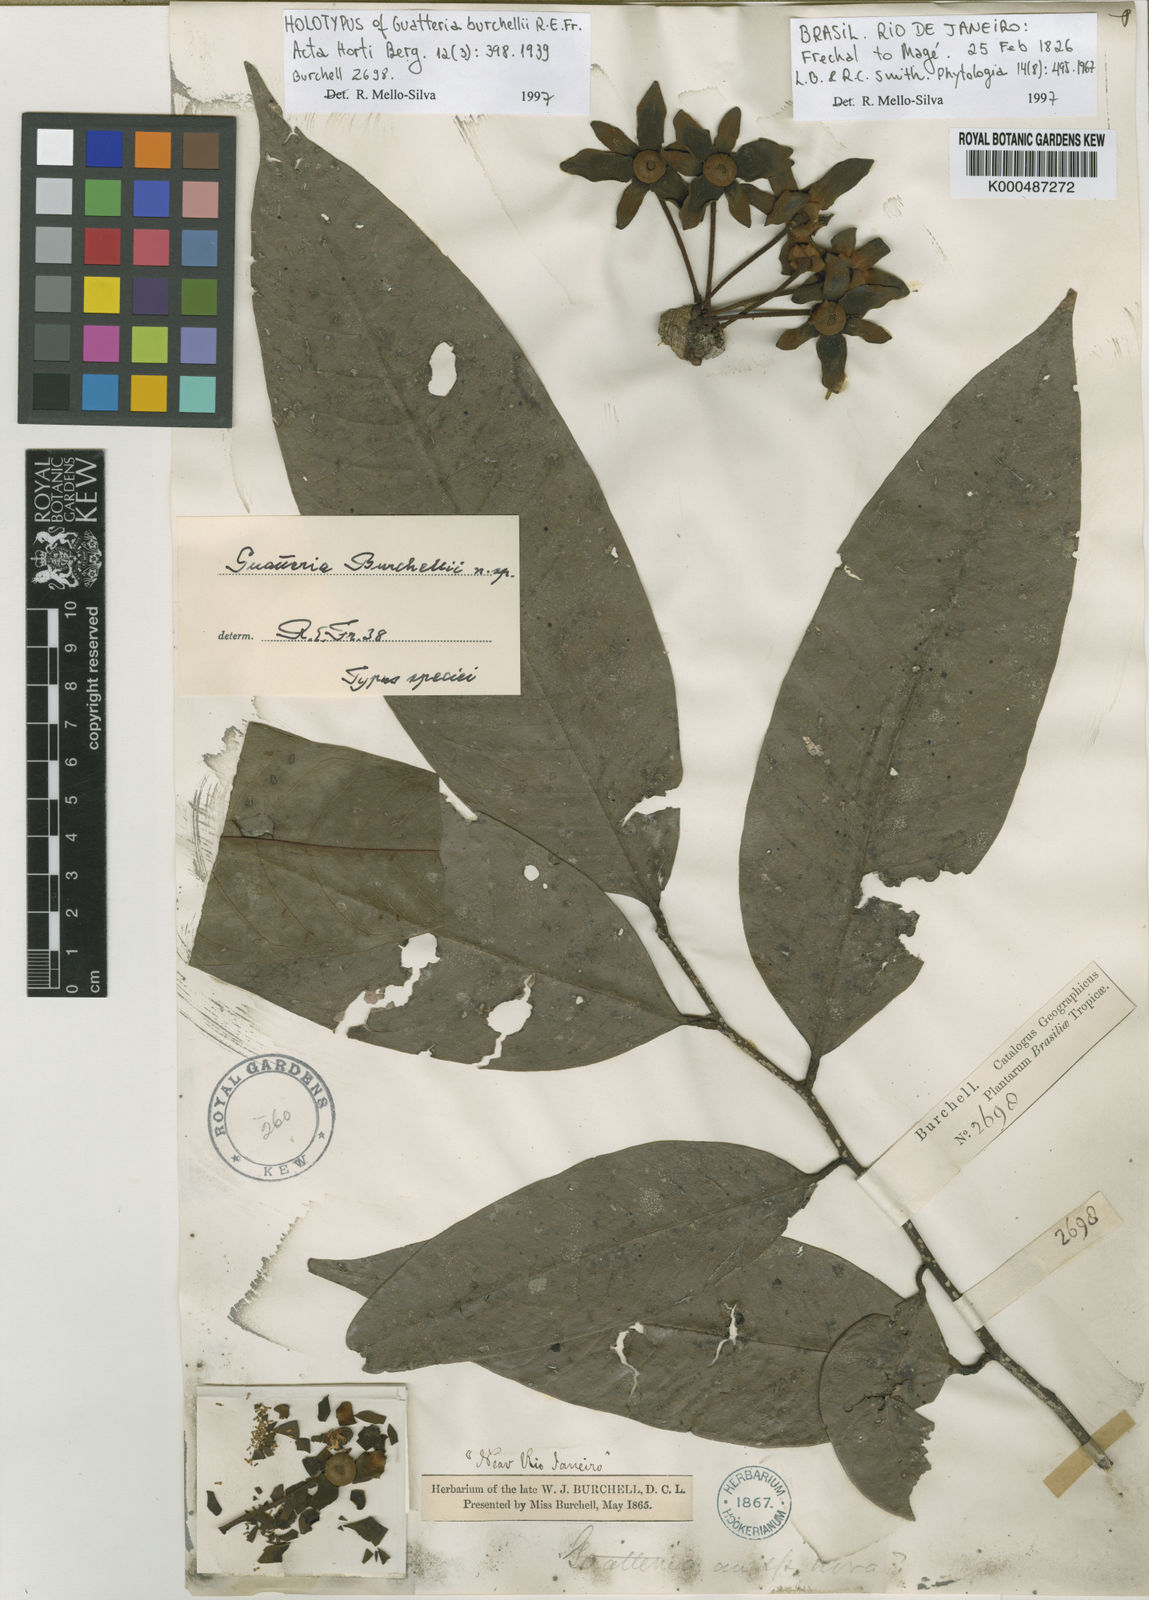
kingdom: Plantae
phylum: Tracheophyta
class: Magnoliopsida
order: Magnoliales
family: Annonaceae
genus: Guatteria
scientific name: Guatteria ferruginea
